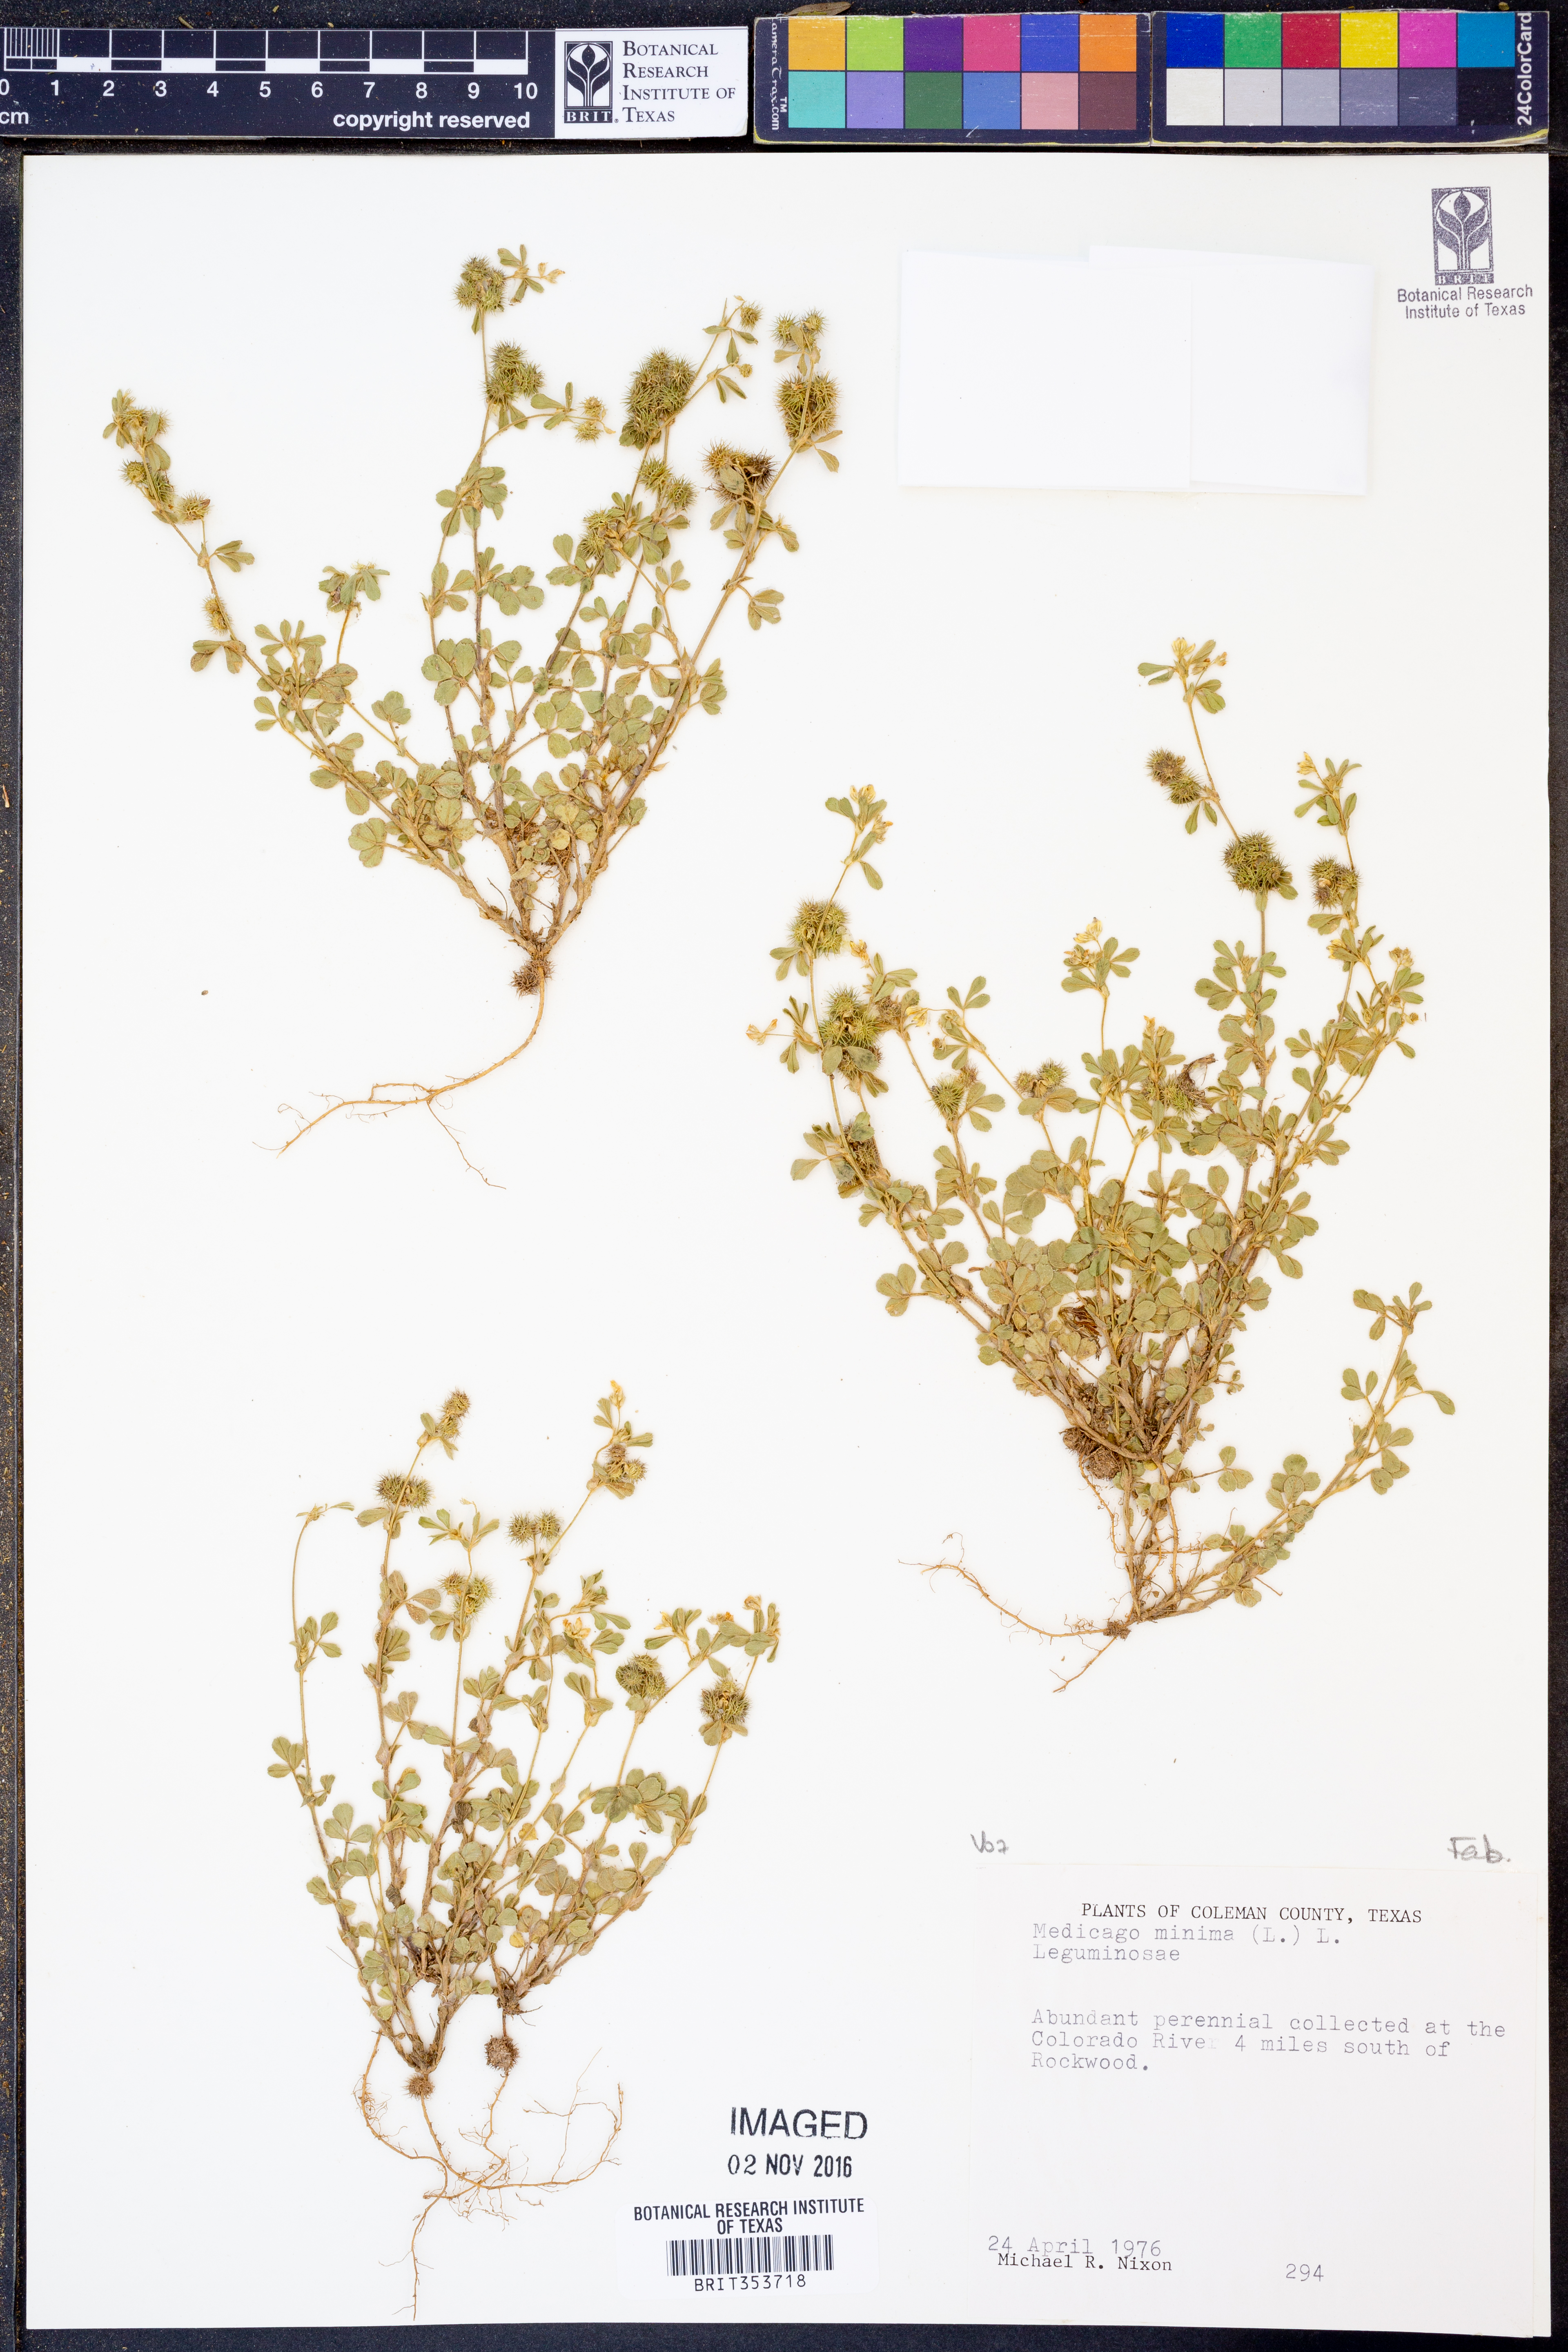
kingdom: Plantae
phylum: Tracheophyta
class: Magnoliopsida
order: Fabales
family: Fabaceae
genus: Medicago
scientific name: Medicago minima
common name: Little bur-clover
